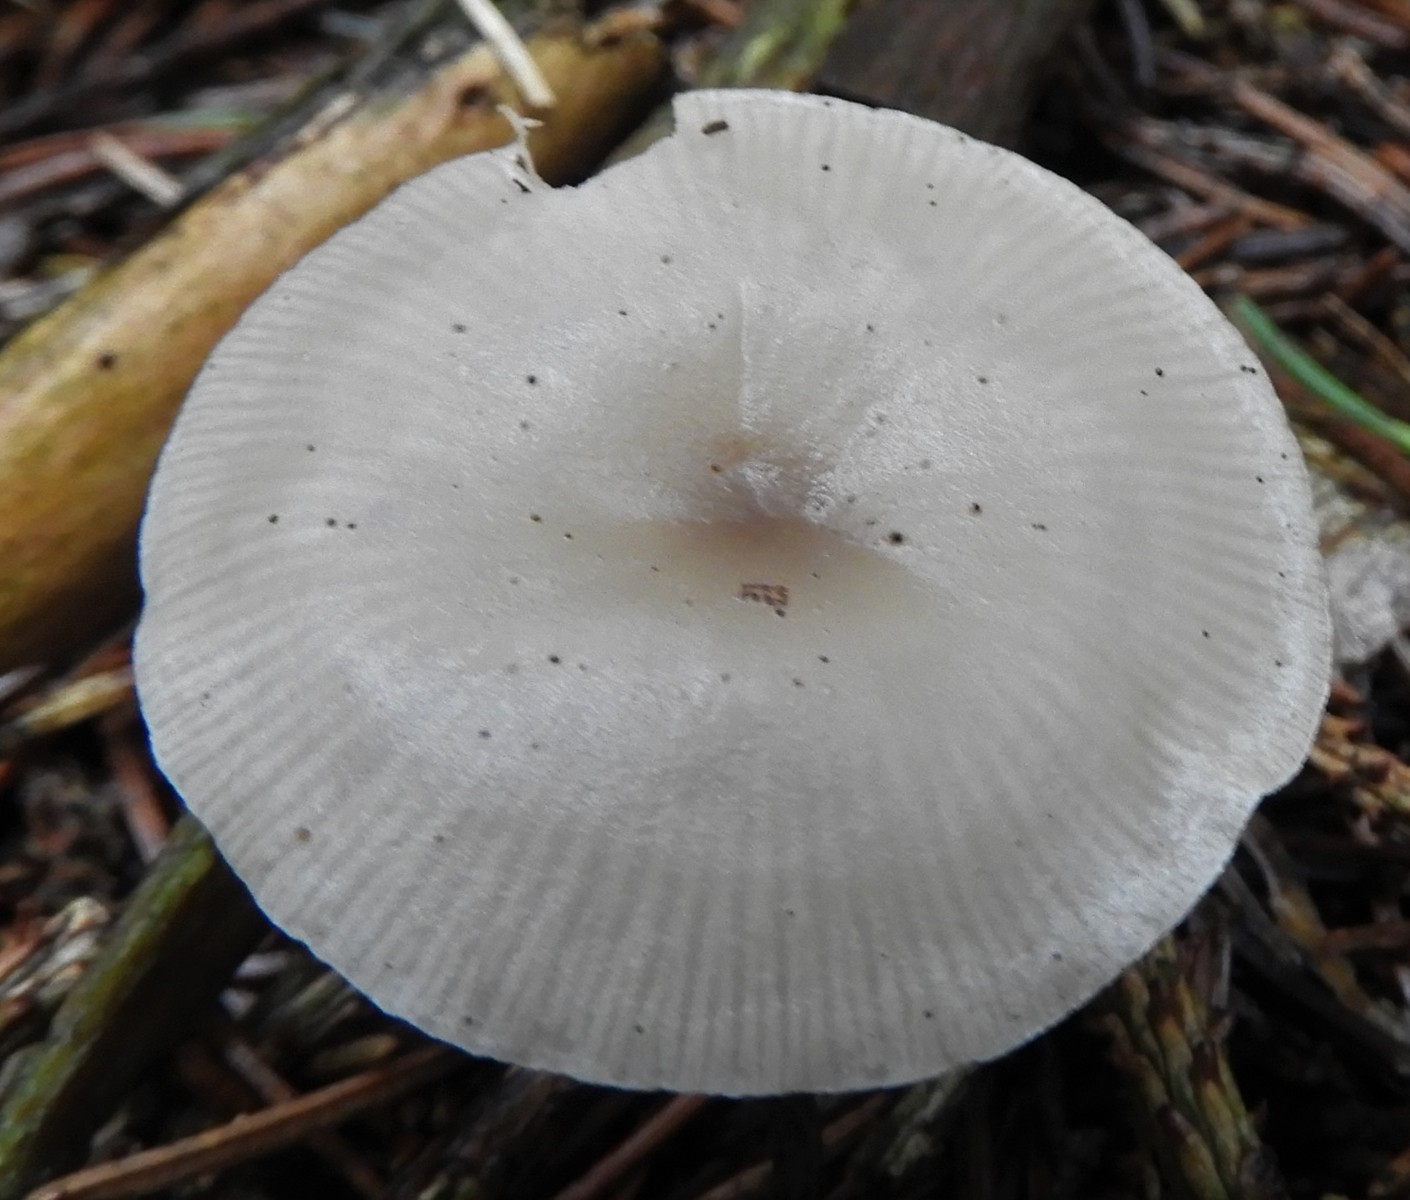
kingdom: Fungi
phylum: Basidiomycota
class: Agaricomycetes
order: Agaricales
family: Tricholomataceae
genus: Clitocybe
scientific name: Clitocybe fragrans
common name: vellugtende tragthat
